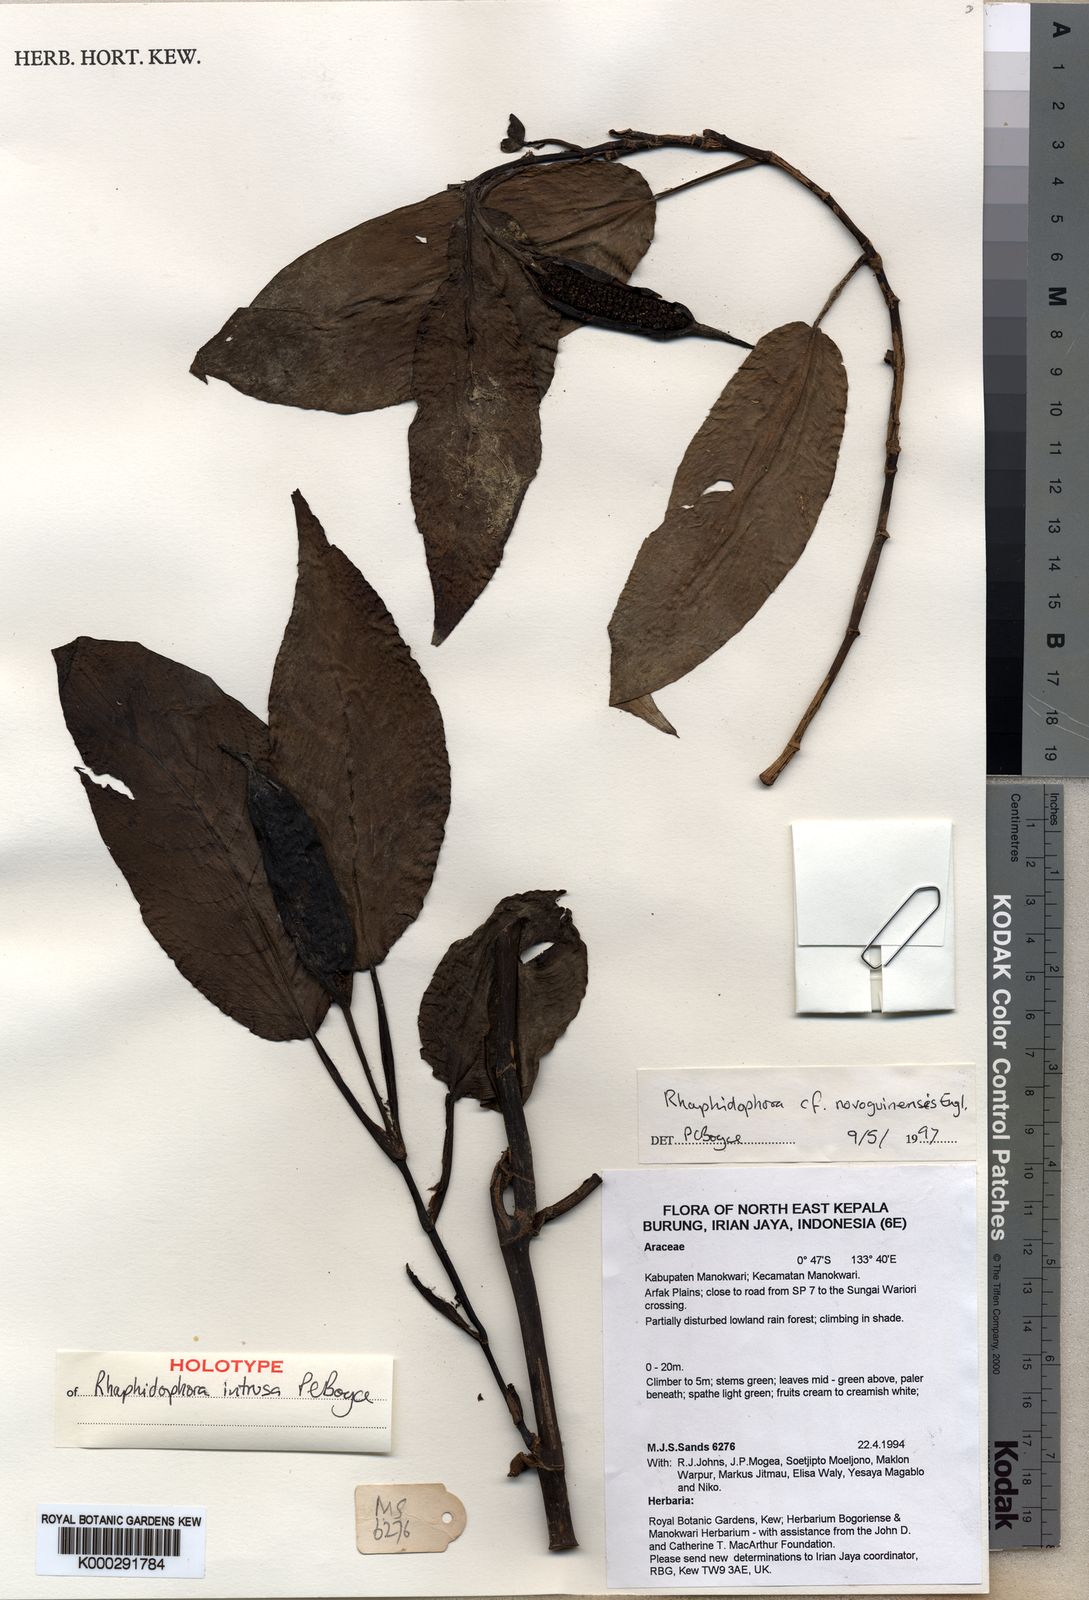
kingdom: Plantae
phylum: Tracheophyta
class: Liliopsida
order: Alismatales
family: Araceae
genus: Rhaphidophora
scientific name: Rhaphidophora intrusa
